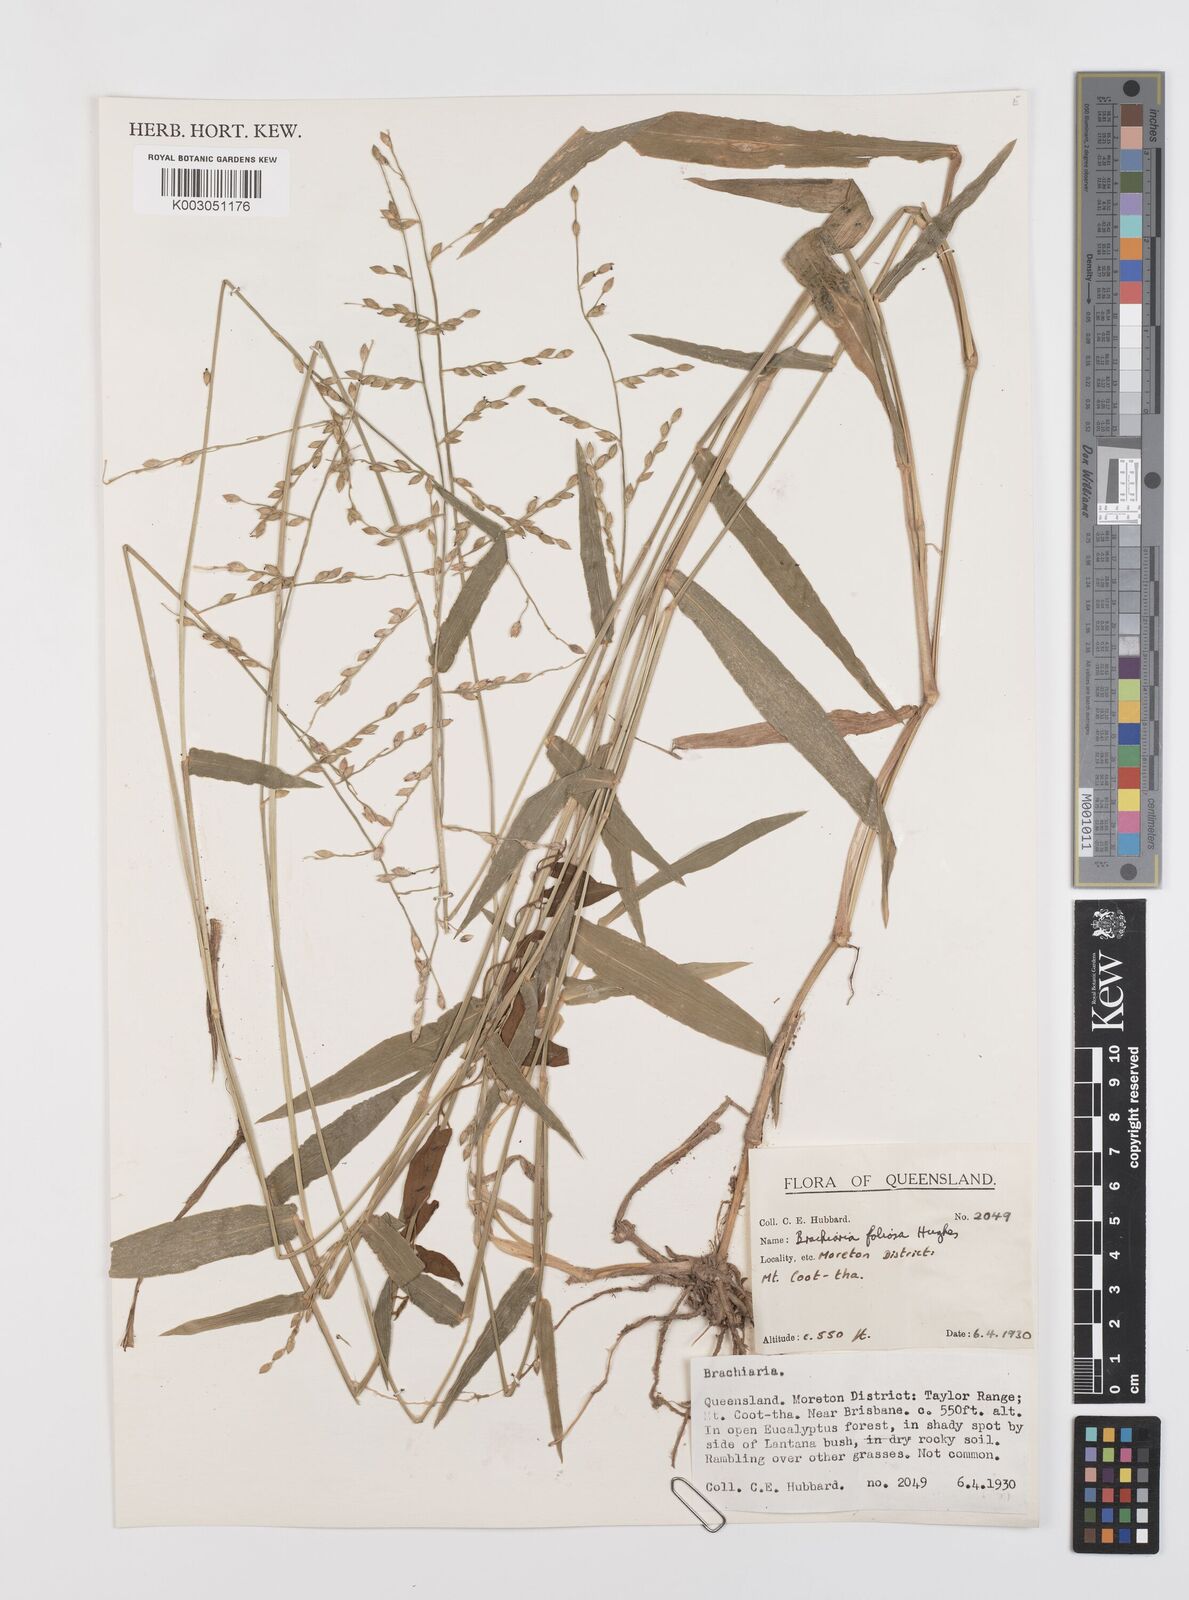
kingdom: Plantae
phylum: Tracheophyta
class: Liliopsida
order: Poales
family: Poaceae
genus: Urochloa
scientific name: Urochloa foliosa
